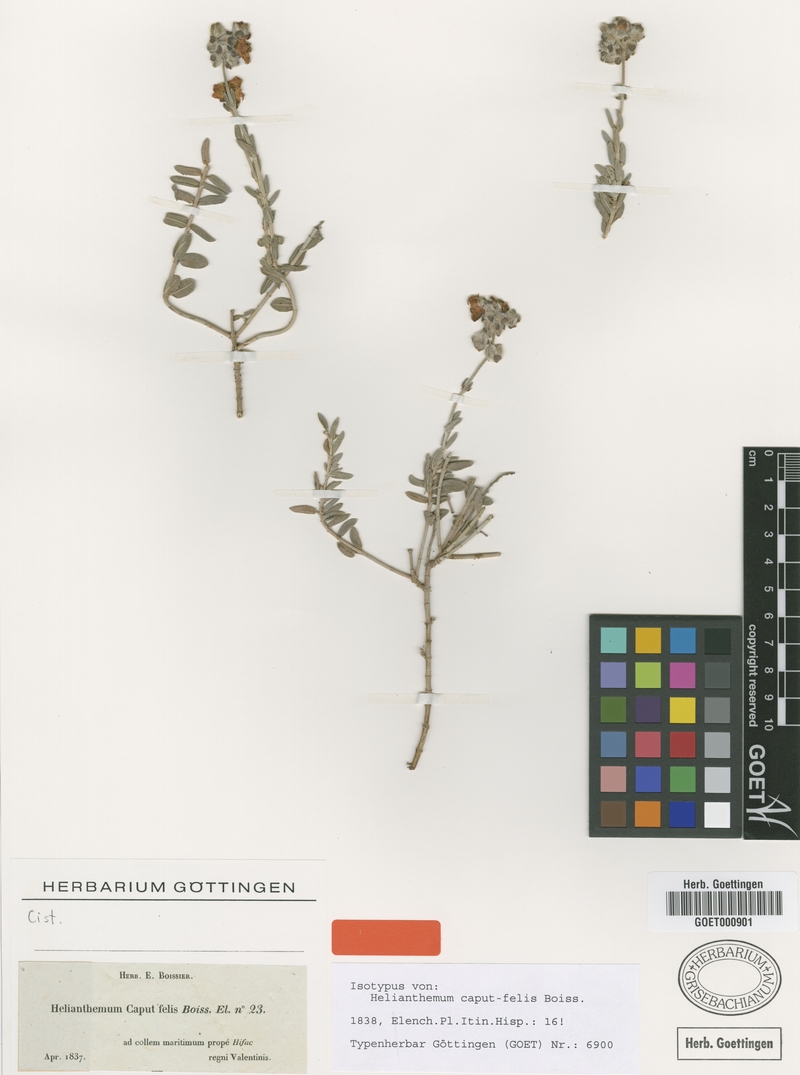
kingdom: Plantae
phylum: Tracheophyta
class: Magnoliopsida
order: Malvales
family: Cistaceae
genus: Helianthemum
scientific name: Helianthemum caput-felis
